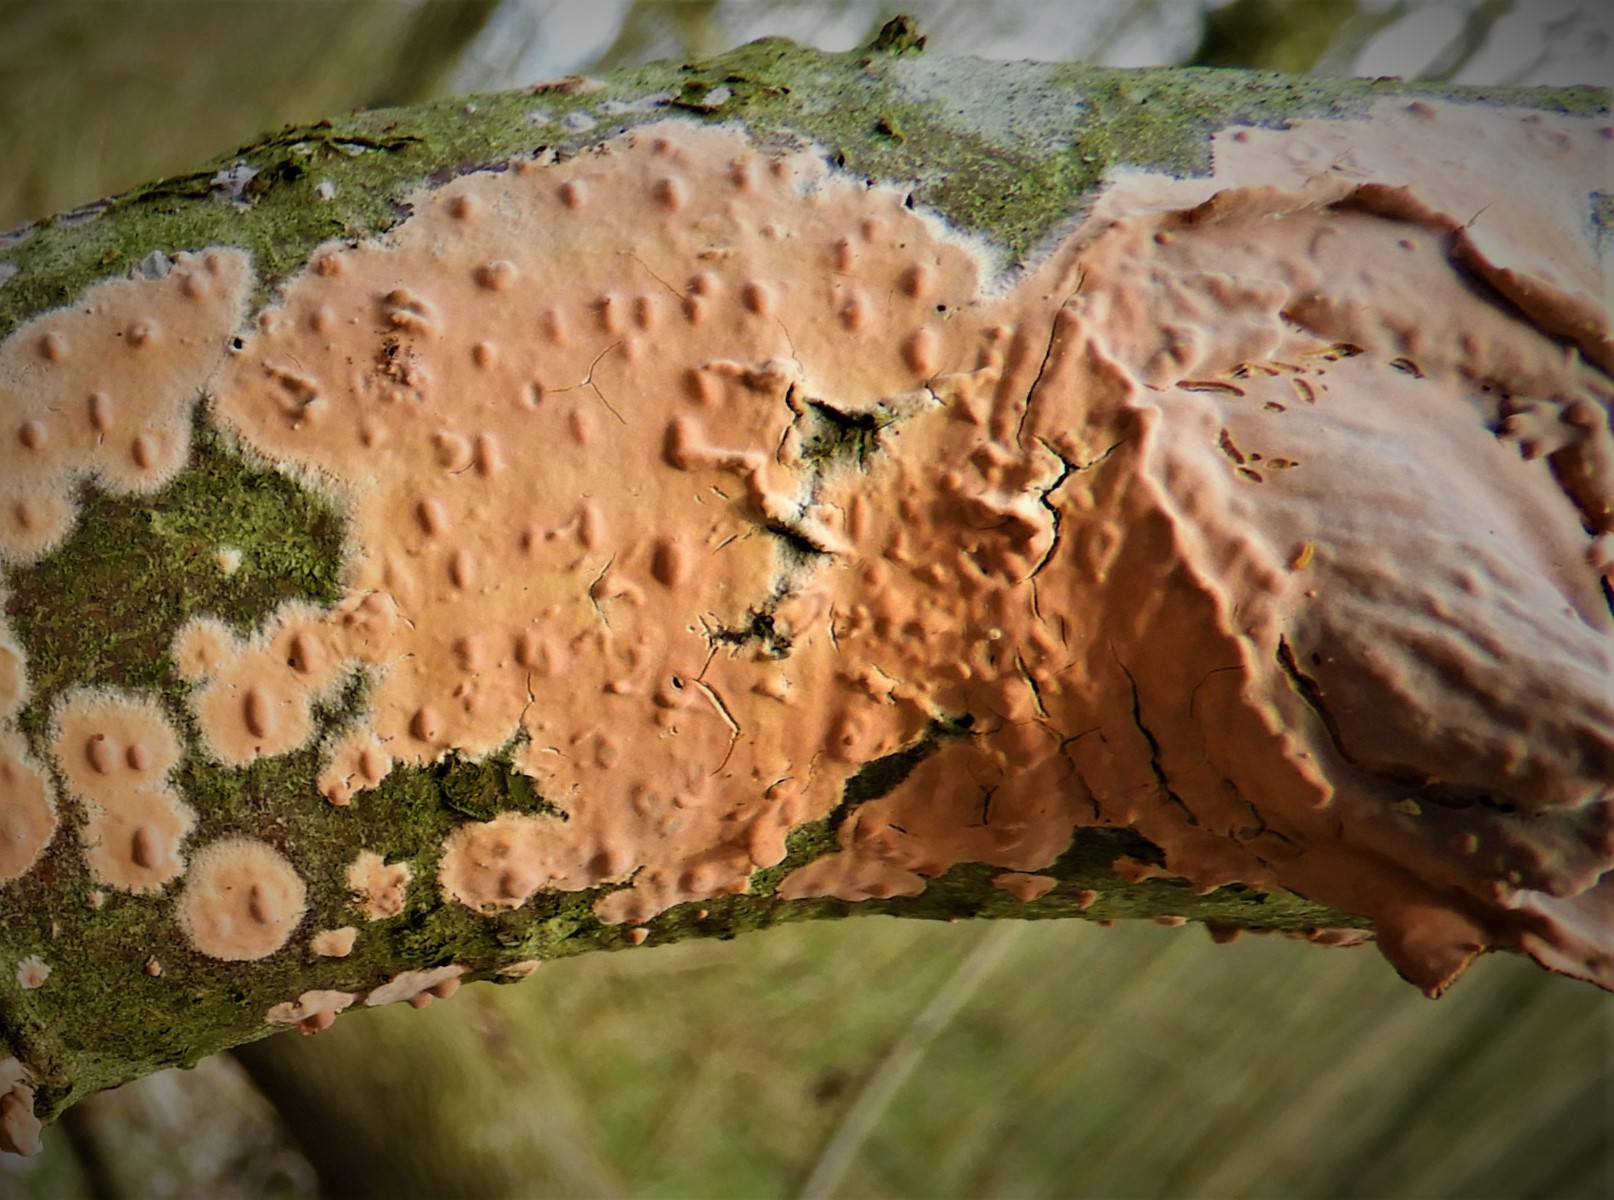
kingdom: Fungi
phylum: Basidiomycota
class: Agaricomycetes
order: Russulales
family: Peniophoraceae
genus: Peniophora
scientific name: Peniophora incarnata
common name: laksefarvet voksskind
